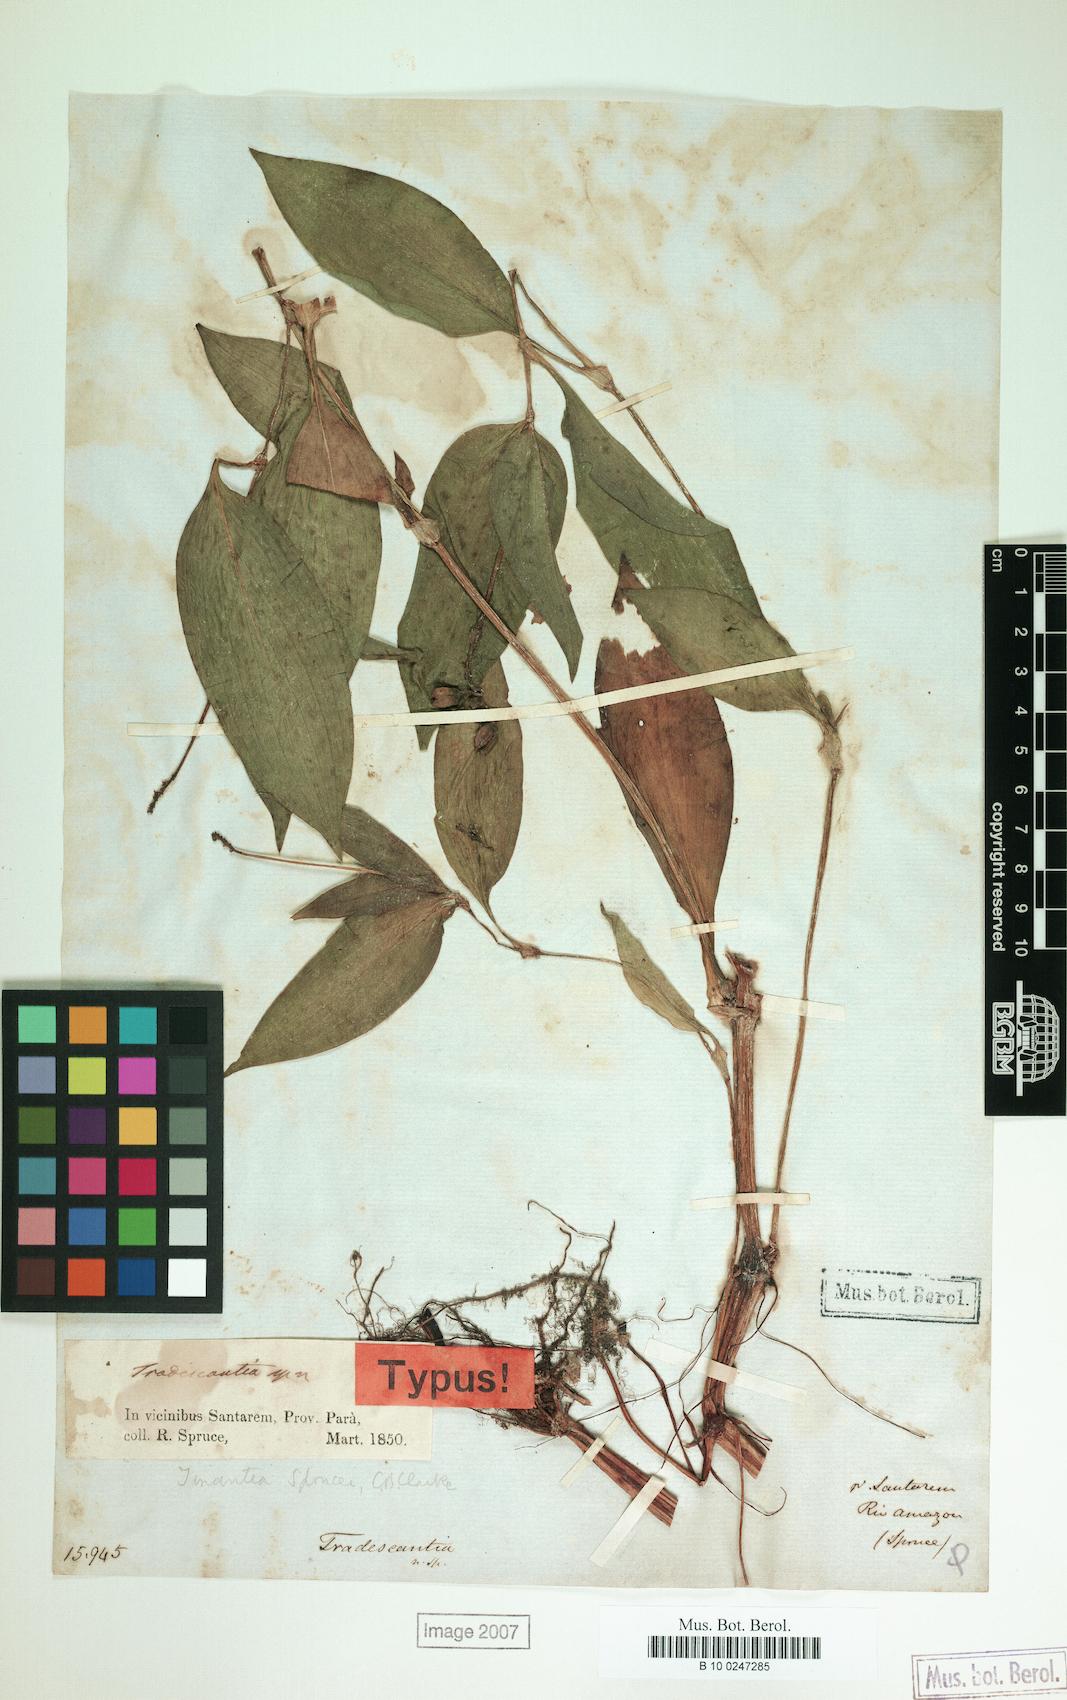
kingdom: Plantae
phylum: Tracheophyta
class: Liliopsida
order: Commelinales
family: Commelinaceae
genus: Tinantia
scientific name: Tinantia sprucei
